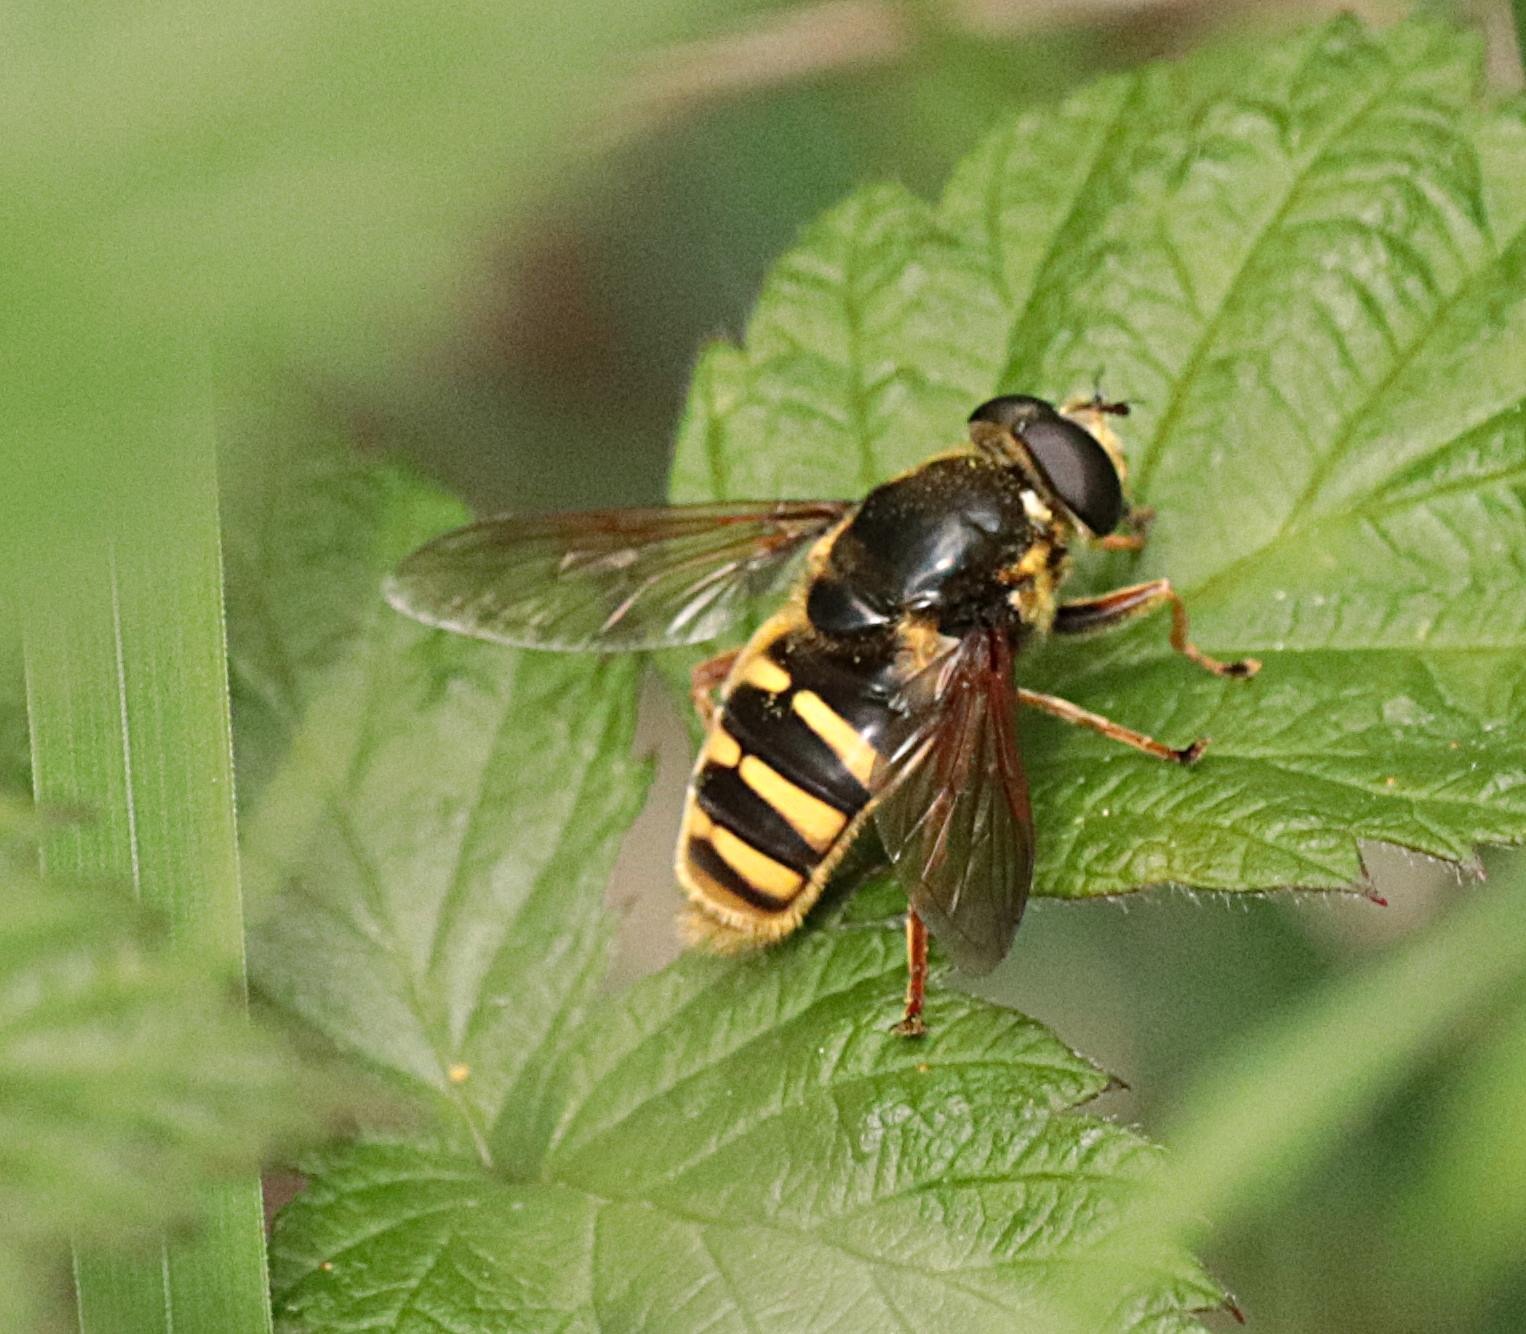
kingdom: Animalia
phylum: Arthropoda
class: Insecta
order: Diptera
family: Syrphidae
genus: Sericomyia
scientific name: Sericomyia silentis
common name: Tørve-silkesvirreflue
